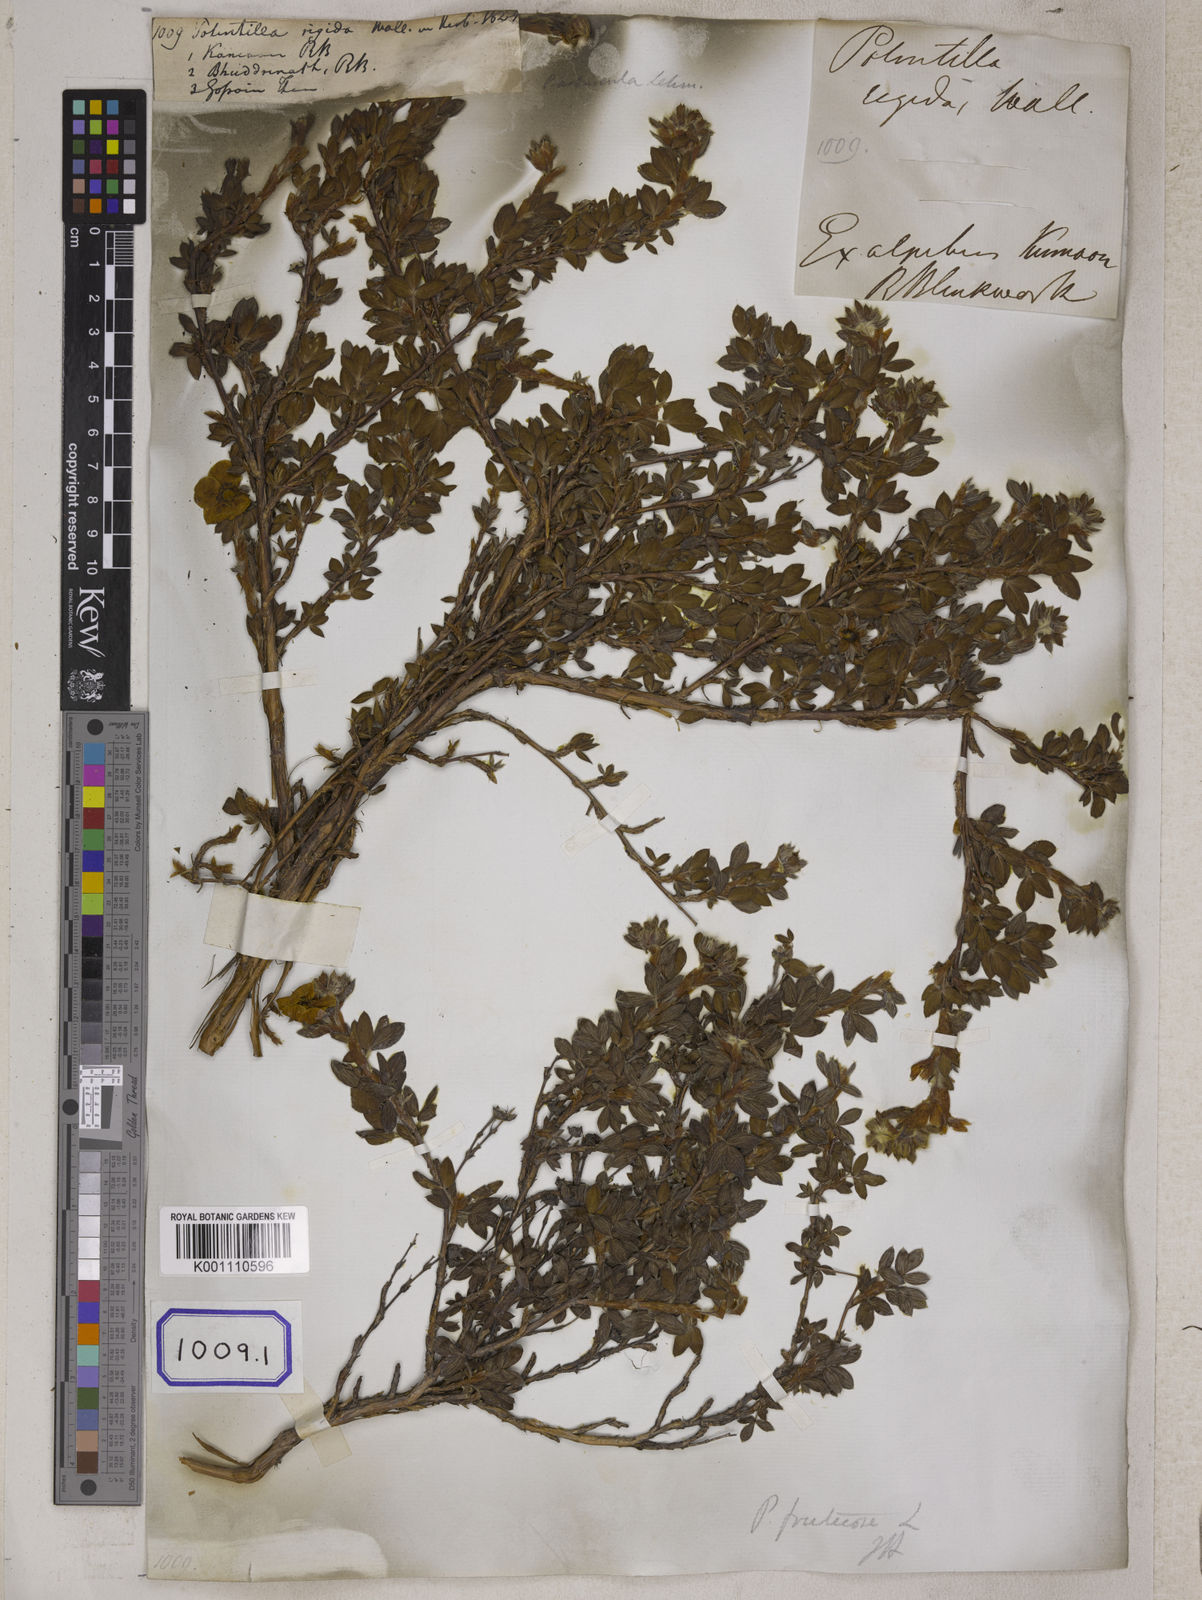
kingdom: Plantae
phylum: Tracheophyta
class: Magnoliopsida
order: Rosales
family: Rosaceae
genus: Potentilla
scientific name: Potentilla
